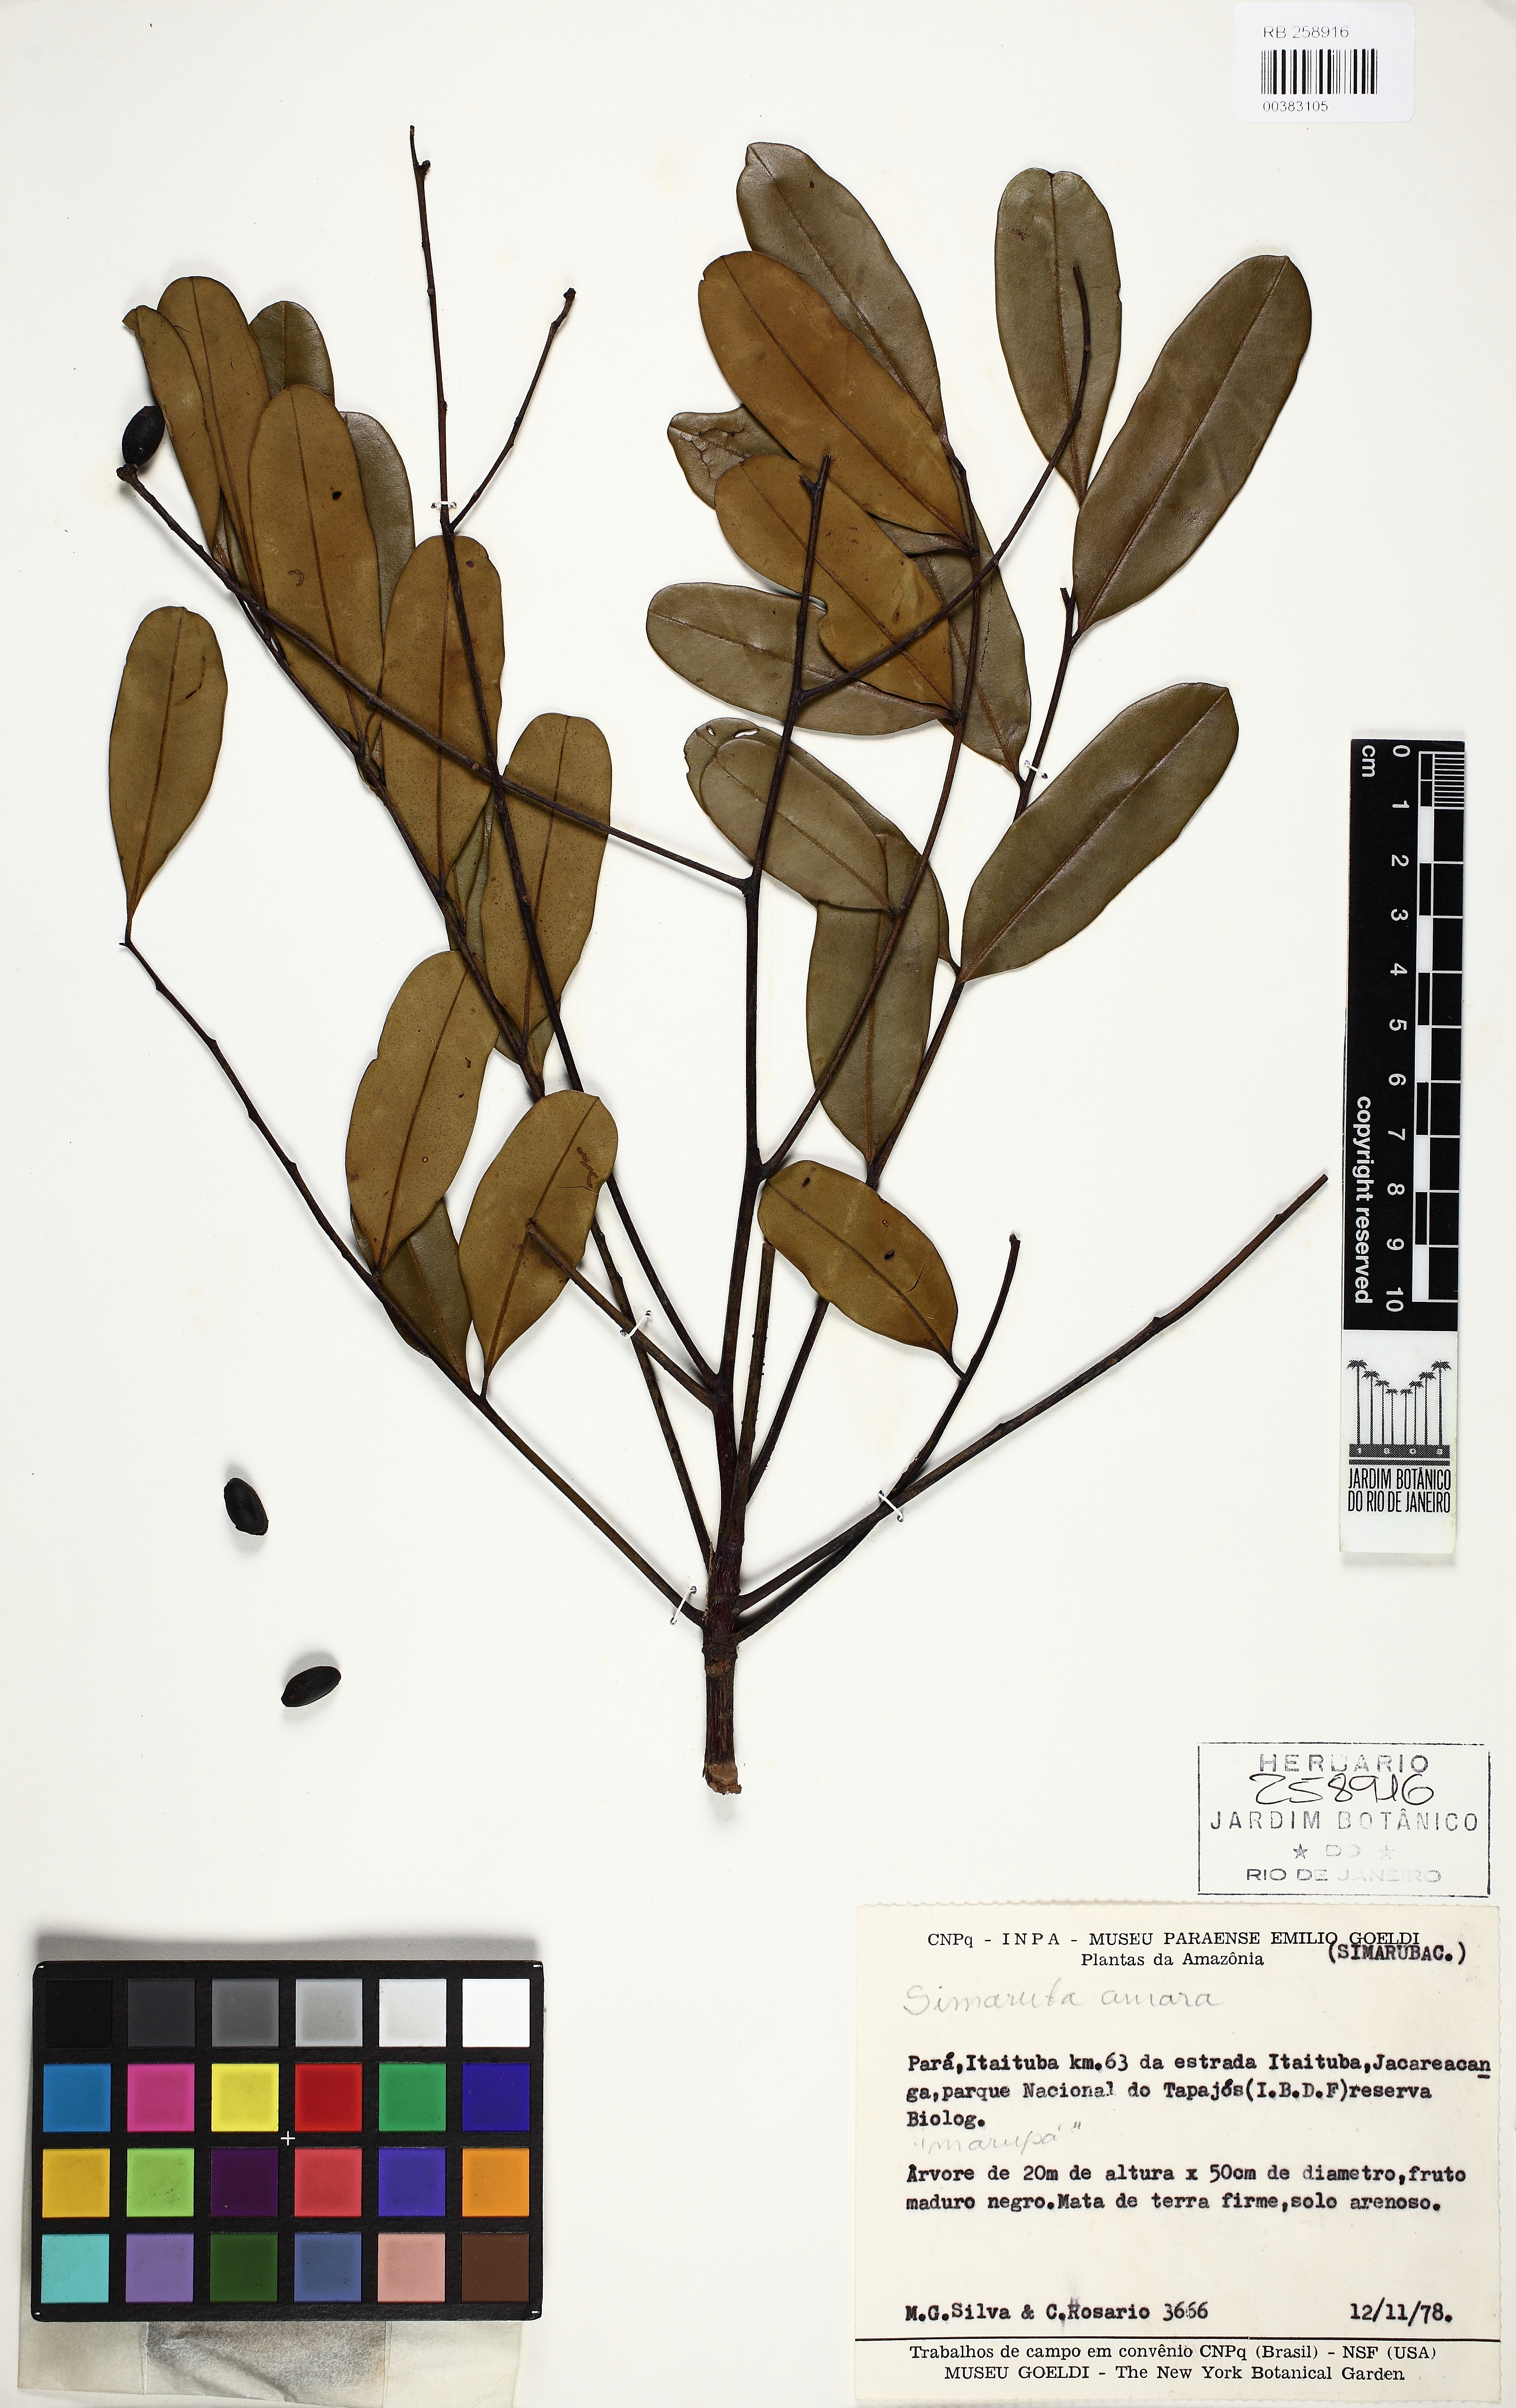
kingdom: Plantae
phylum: Tracheophyta
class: Magnoliopsida
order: Sapindales
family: Simaroubaceae
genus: Simarouba
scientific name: Simarouba amara
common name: Bitterwood
